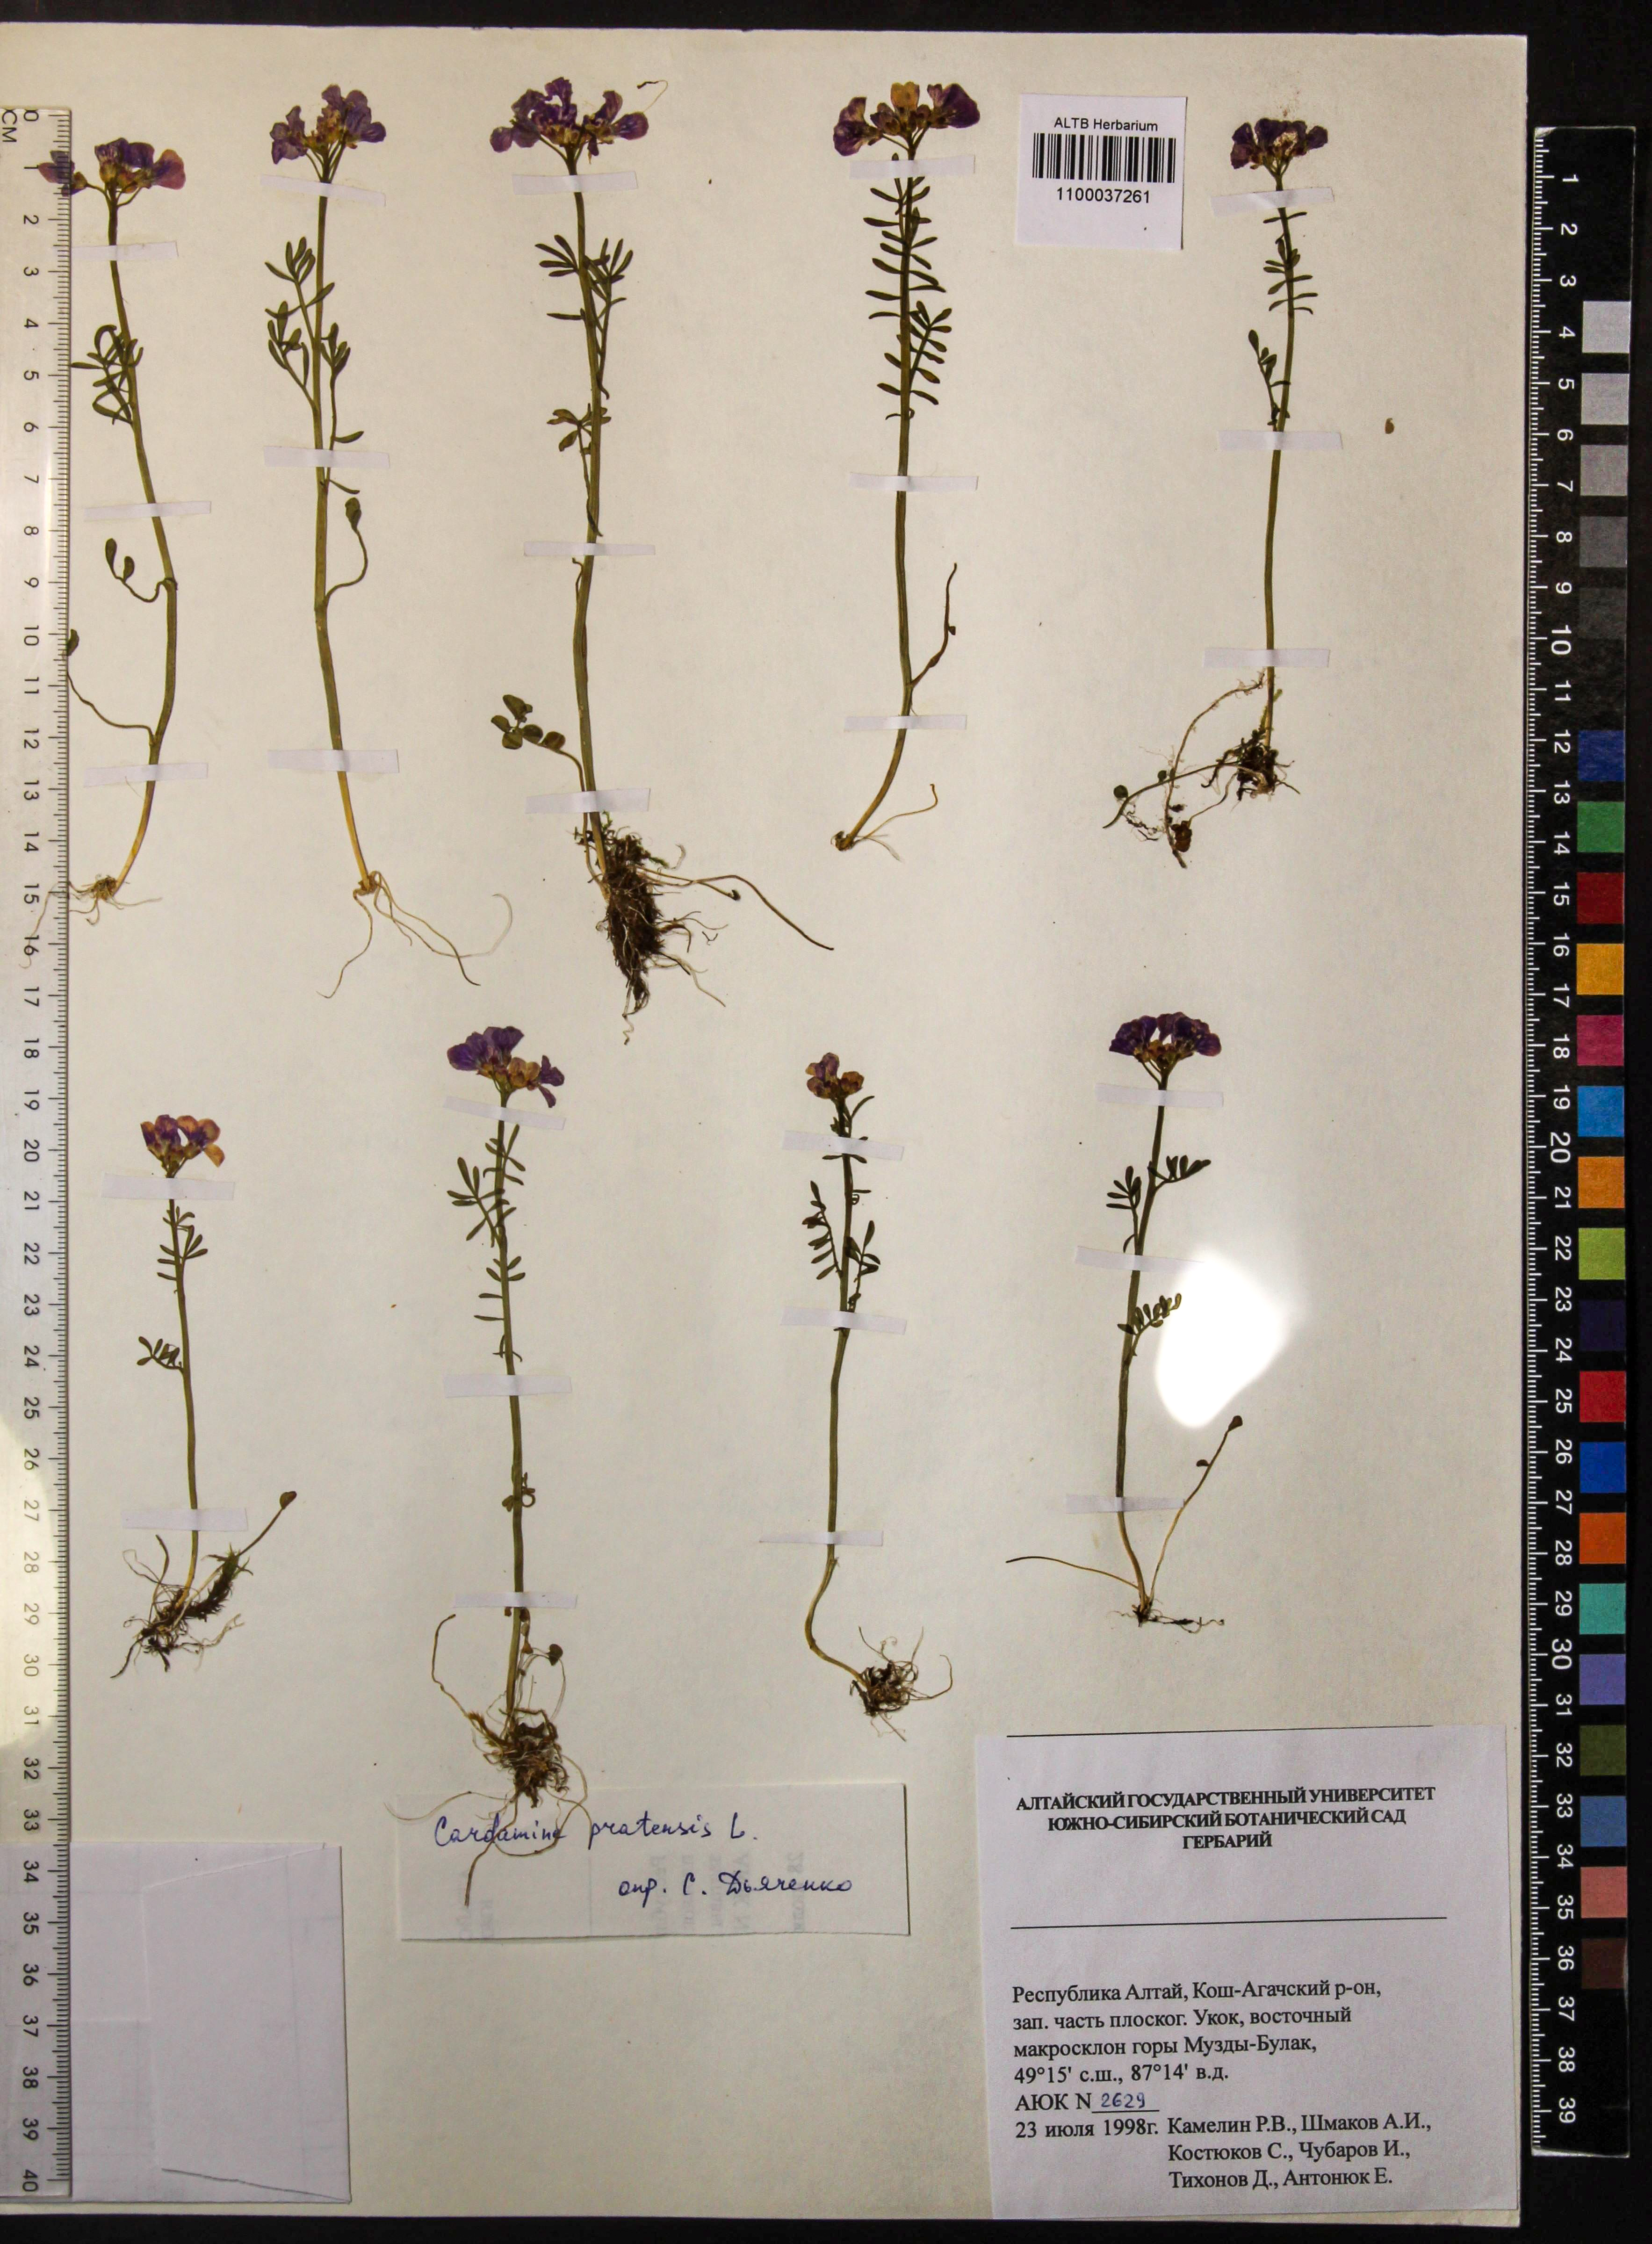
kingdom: Plantae
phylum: Tracheophyta
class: Magnoliopsida
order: Brassicales
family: Brassicaceae
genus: Cardamine
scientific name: Cardamine pratensis
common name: Cuckoo flower
